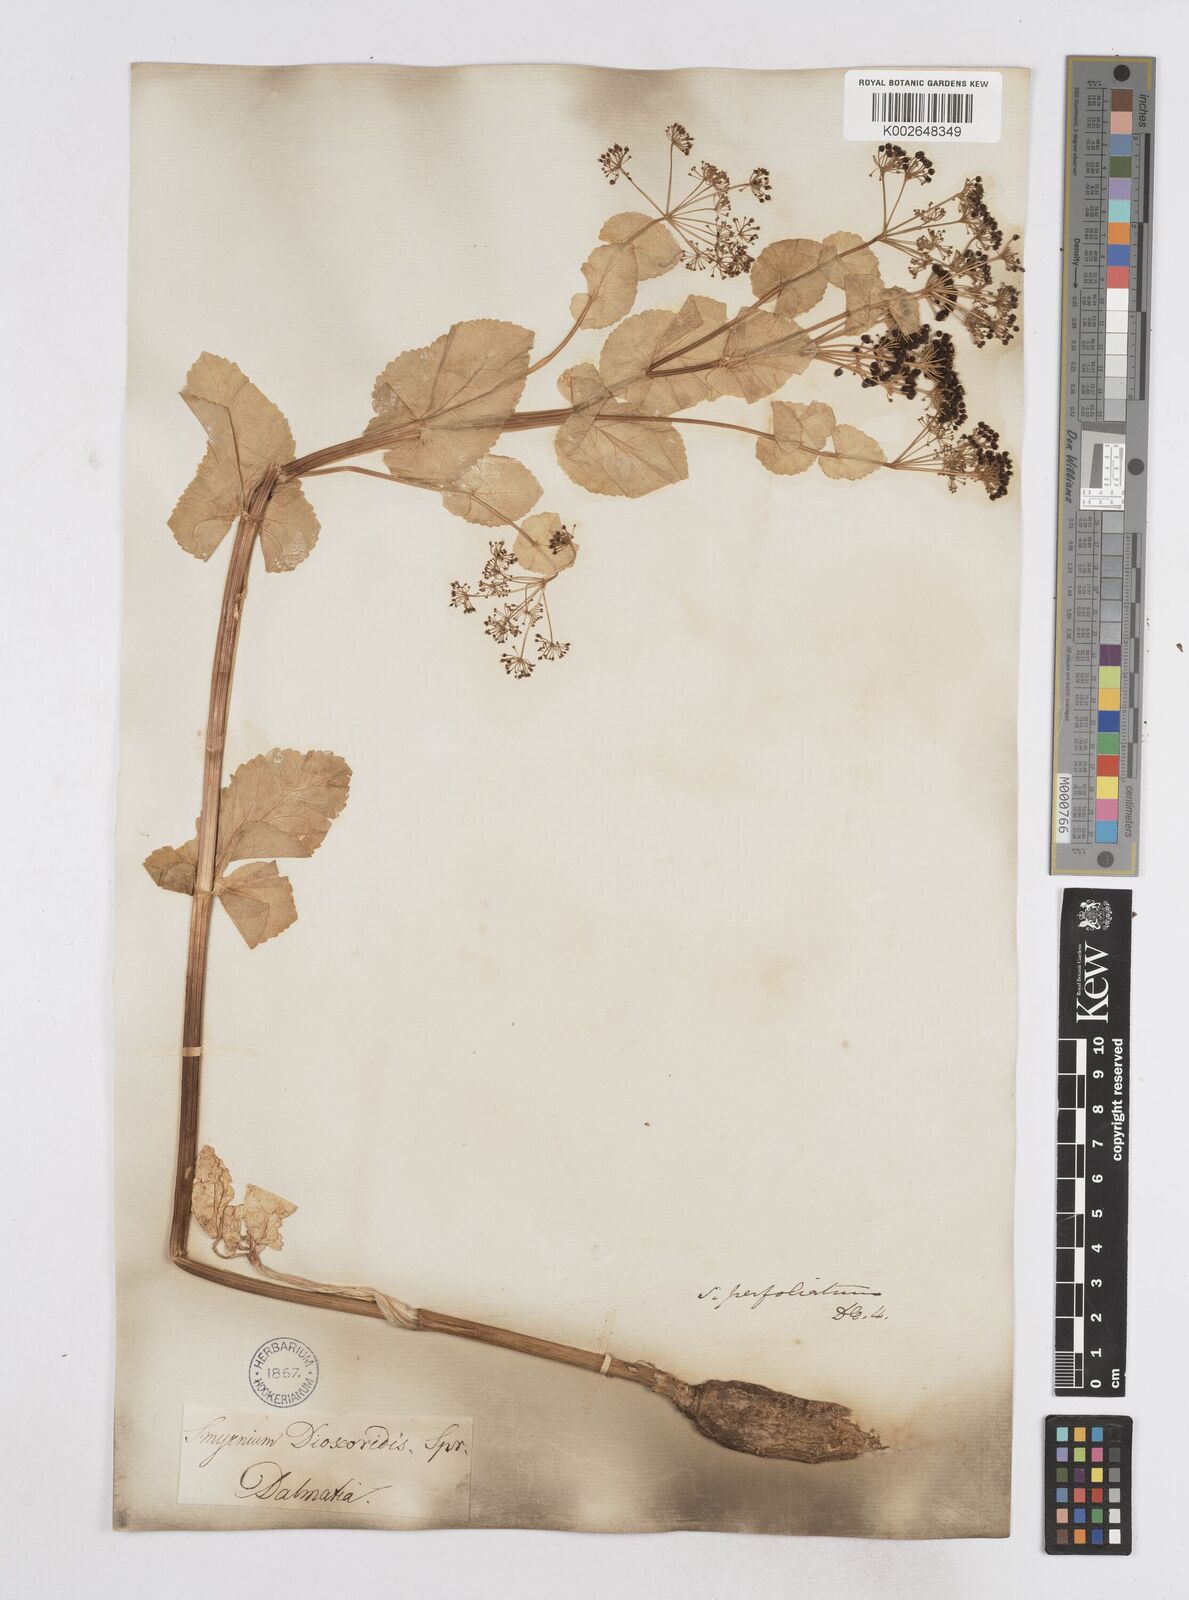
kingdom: Plantae
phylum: Tracheophyta
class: Magnoliopsida
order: Apiales
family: Apiaceae
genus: Smyrnium
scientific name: Smyrnium perfoliatum
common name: Perfoliate alexanders
